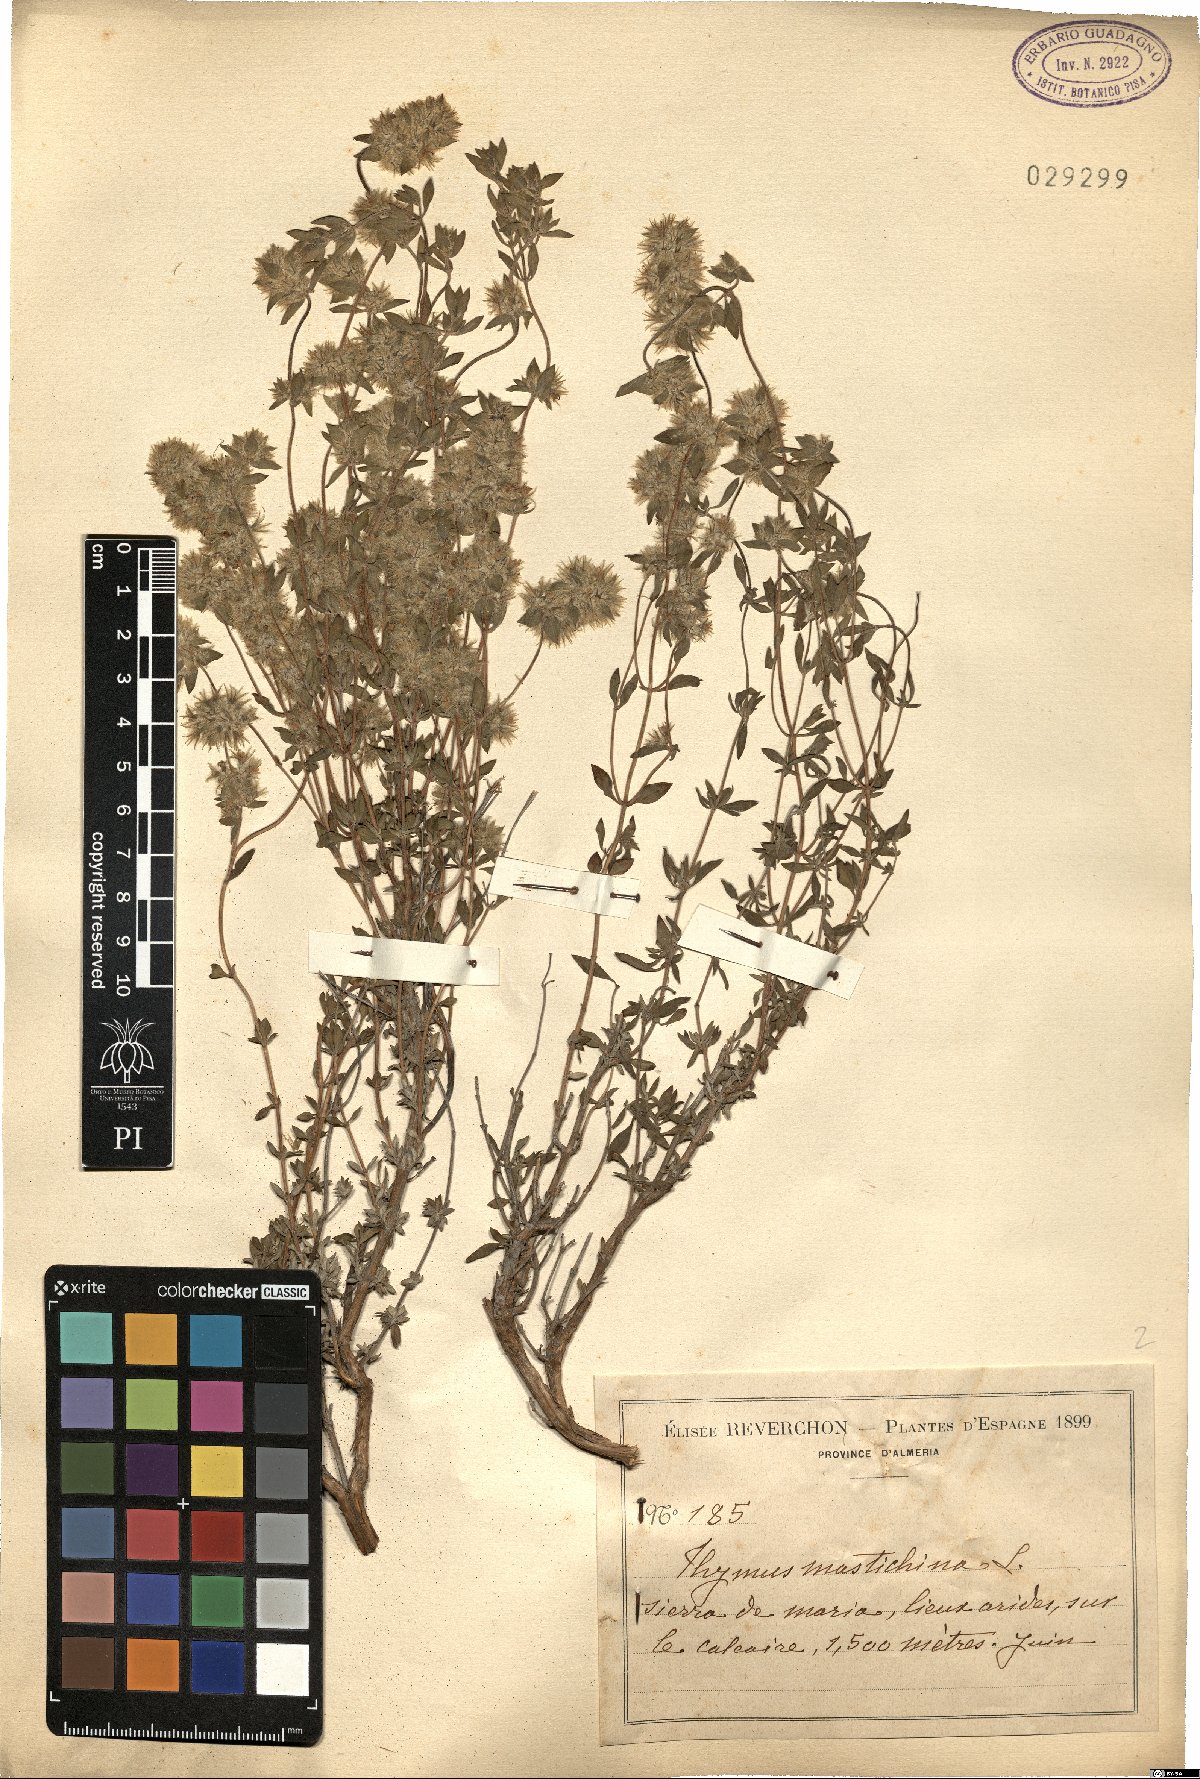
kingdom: Plantae
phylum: Tracheophyta
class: Magnoliopsida
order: Lamiales
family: Lamiaceae
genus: Thymus
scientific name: Thymus mastichina
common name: Mastic thyme
